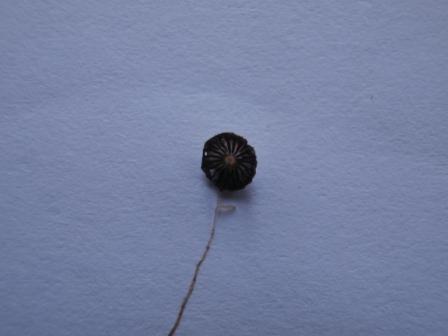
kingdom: Fungi
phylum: Basidiomycota
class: Agaricomycetes
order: Agaricales
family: Psathyrellaceae
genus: Narcissea
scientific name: Narcissea ephemeroides
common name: ring-blækhat
